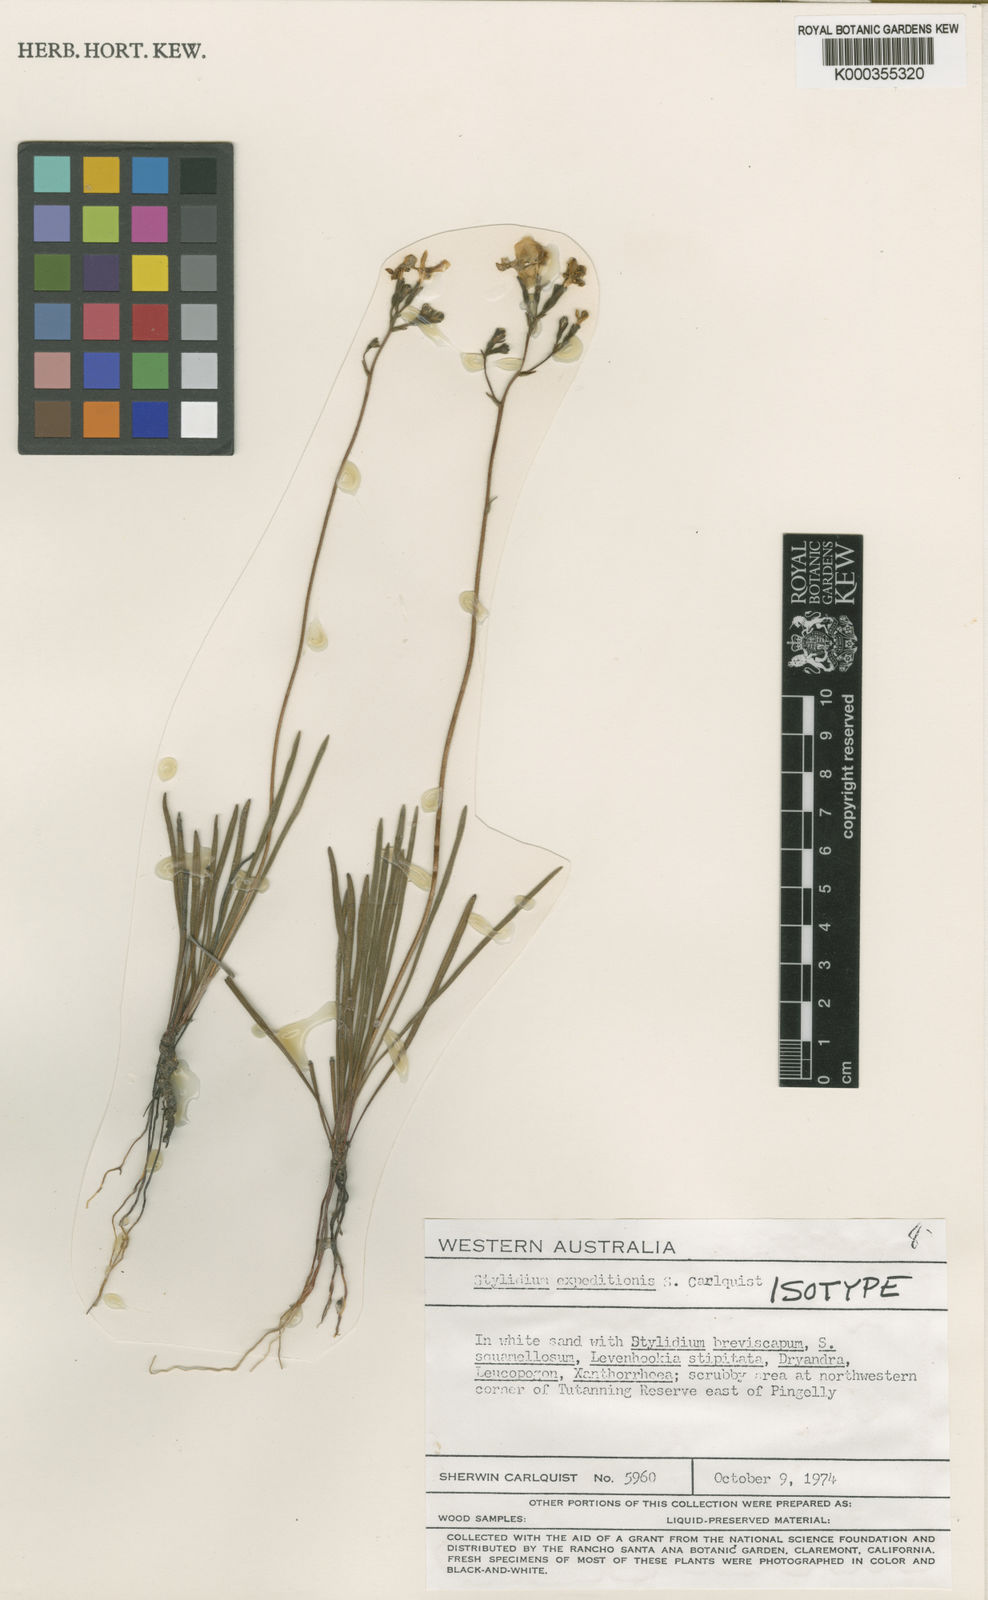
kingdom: Plantae
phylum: Tracheophyta
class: Magnoliopsida
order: Asterales
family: Stylidiaceae
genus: Stylidium
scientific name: Stylidium expeditionis
